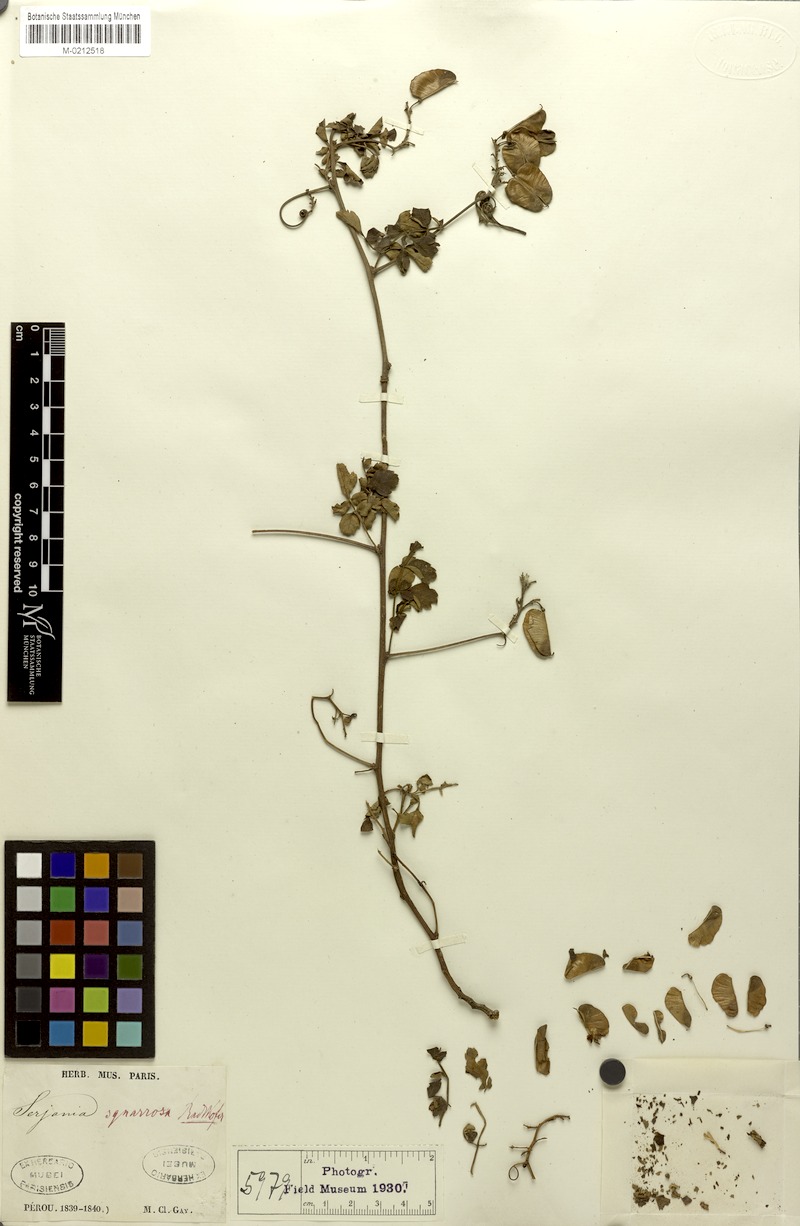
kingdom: Plantae
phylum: Tracheophyta
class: Magnoliopsida
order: Sapindales
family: Sapindaceae
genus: Serjania
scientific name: Serjania squarrosa
